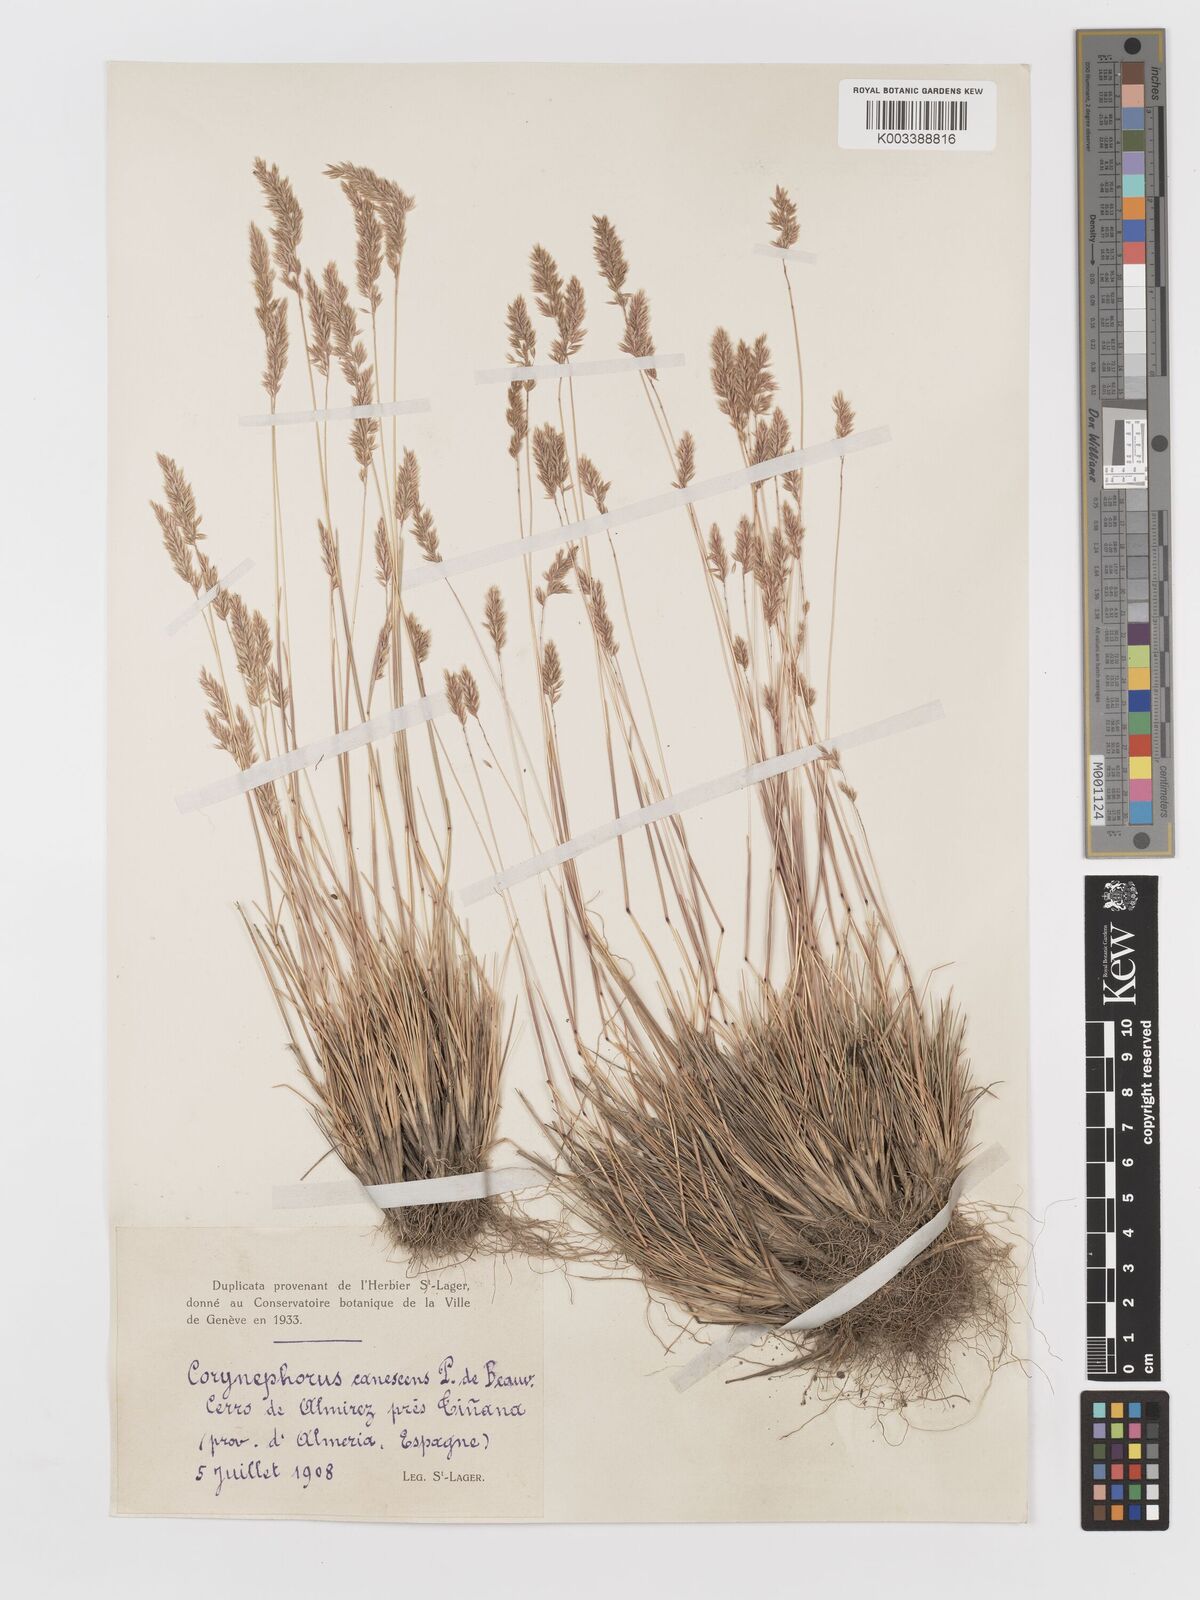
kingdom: Plantae
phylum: Tracheophyta
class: Liliopsida
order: Poales
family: Poaceae
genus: Corynephorus
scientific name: Corynephorus canescens
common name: Grey hair-grass
